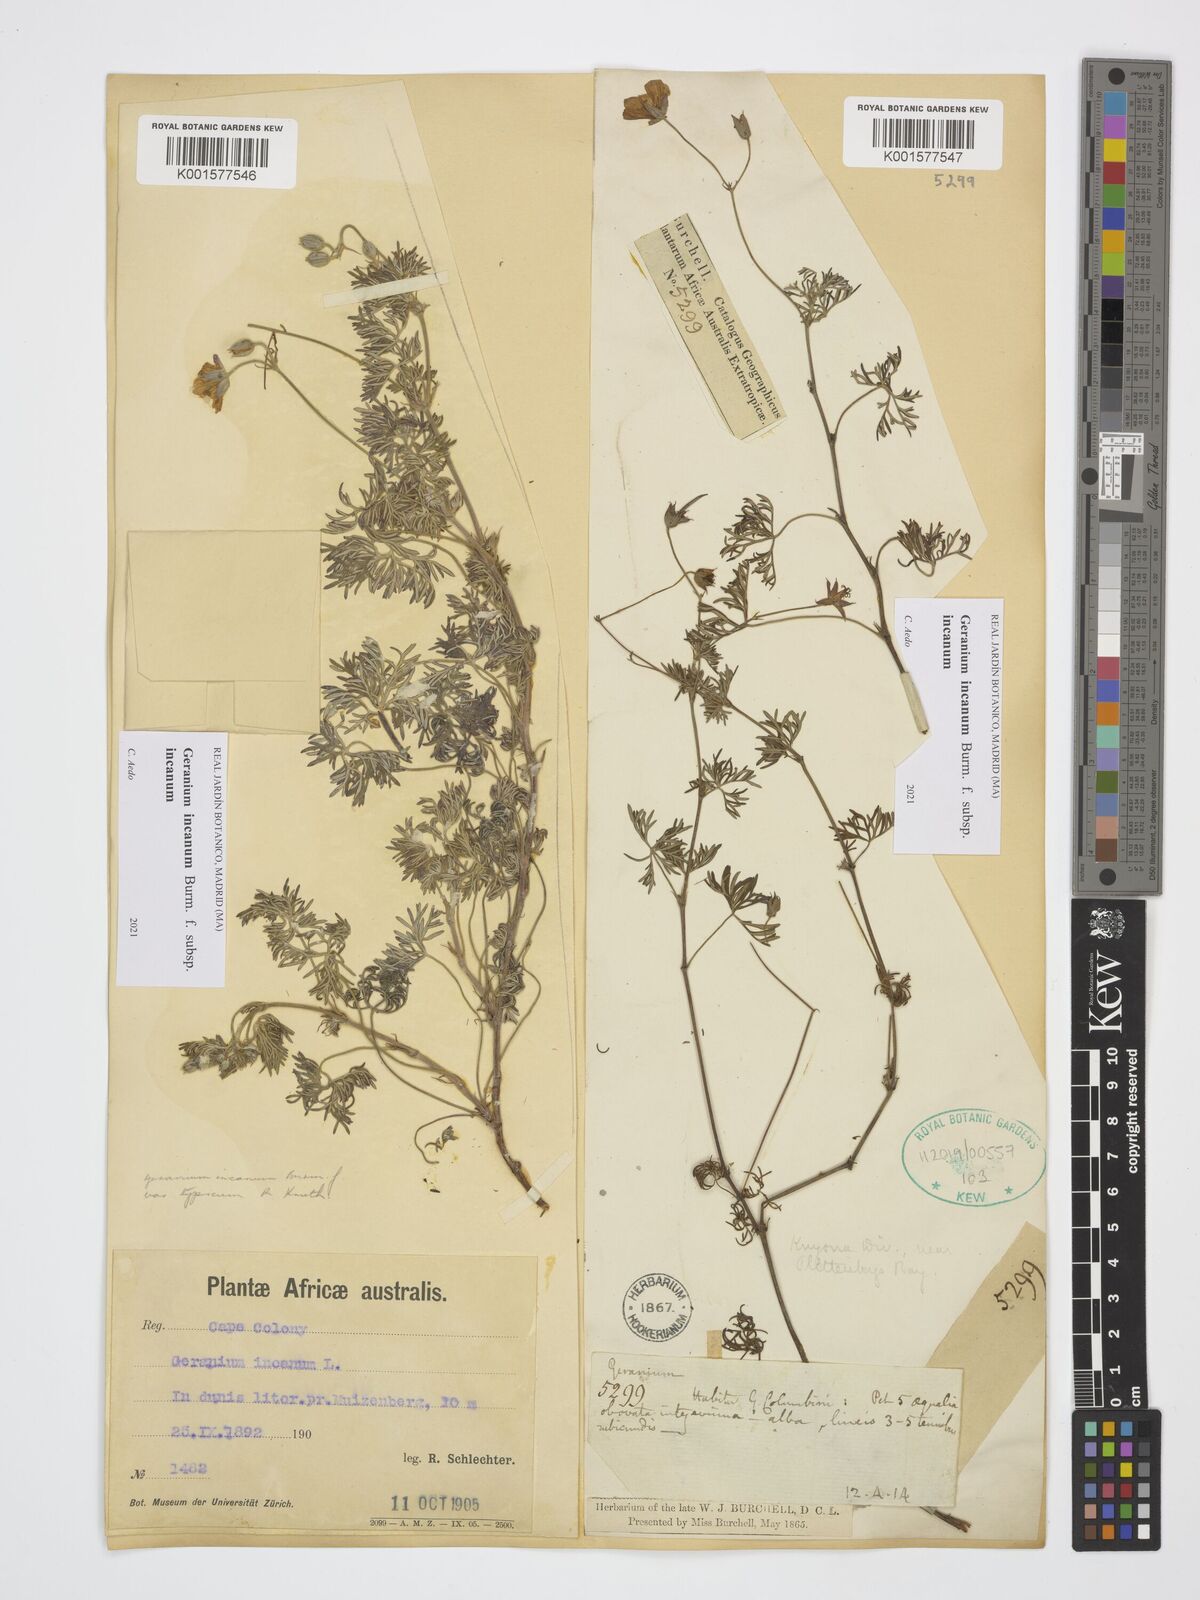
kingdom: Plantae
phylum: Tracheophyta
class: Magnoliopsida
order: Geraniales
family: Geraniaceae
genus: Geranium
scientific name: Geranium incanum
